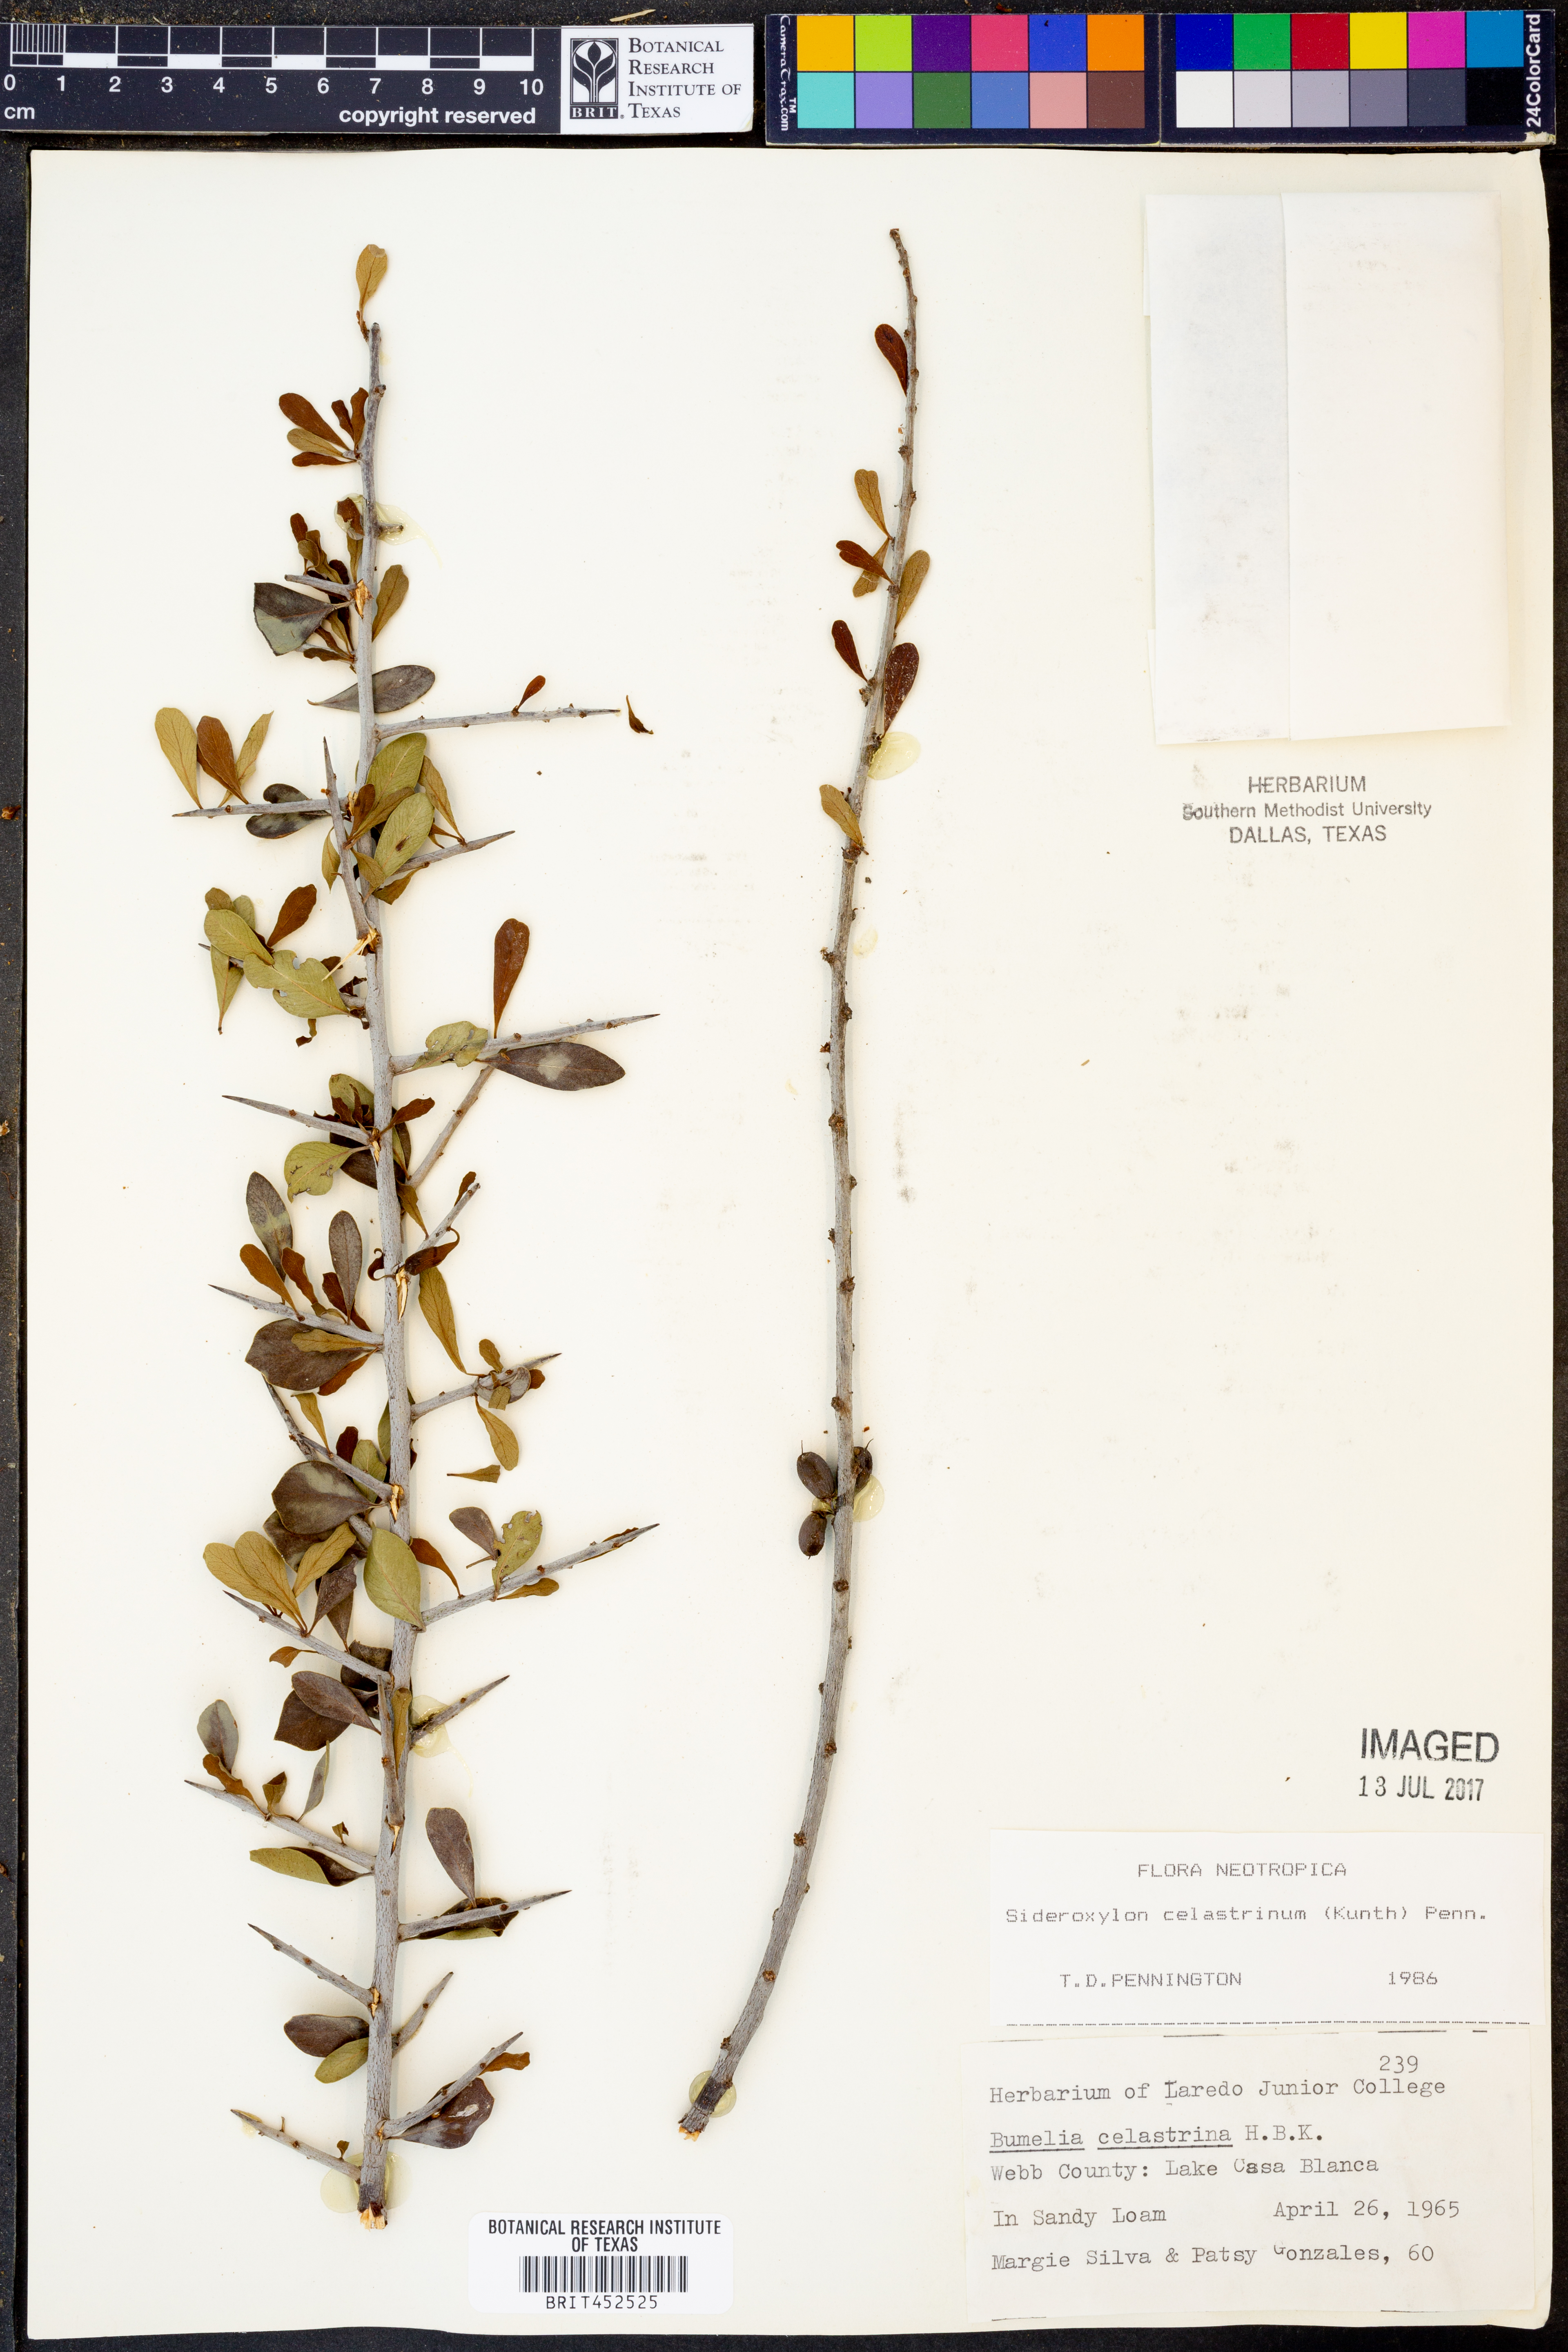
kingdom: Plantae
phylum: Tracheophyta
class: Magnoliopsida
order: Ericales
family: Sapotaceae
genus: Sideroxylon
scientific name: Sideroxylon celastrinum
